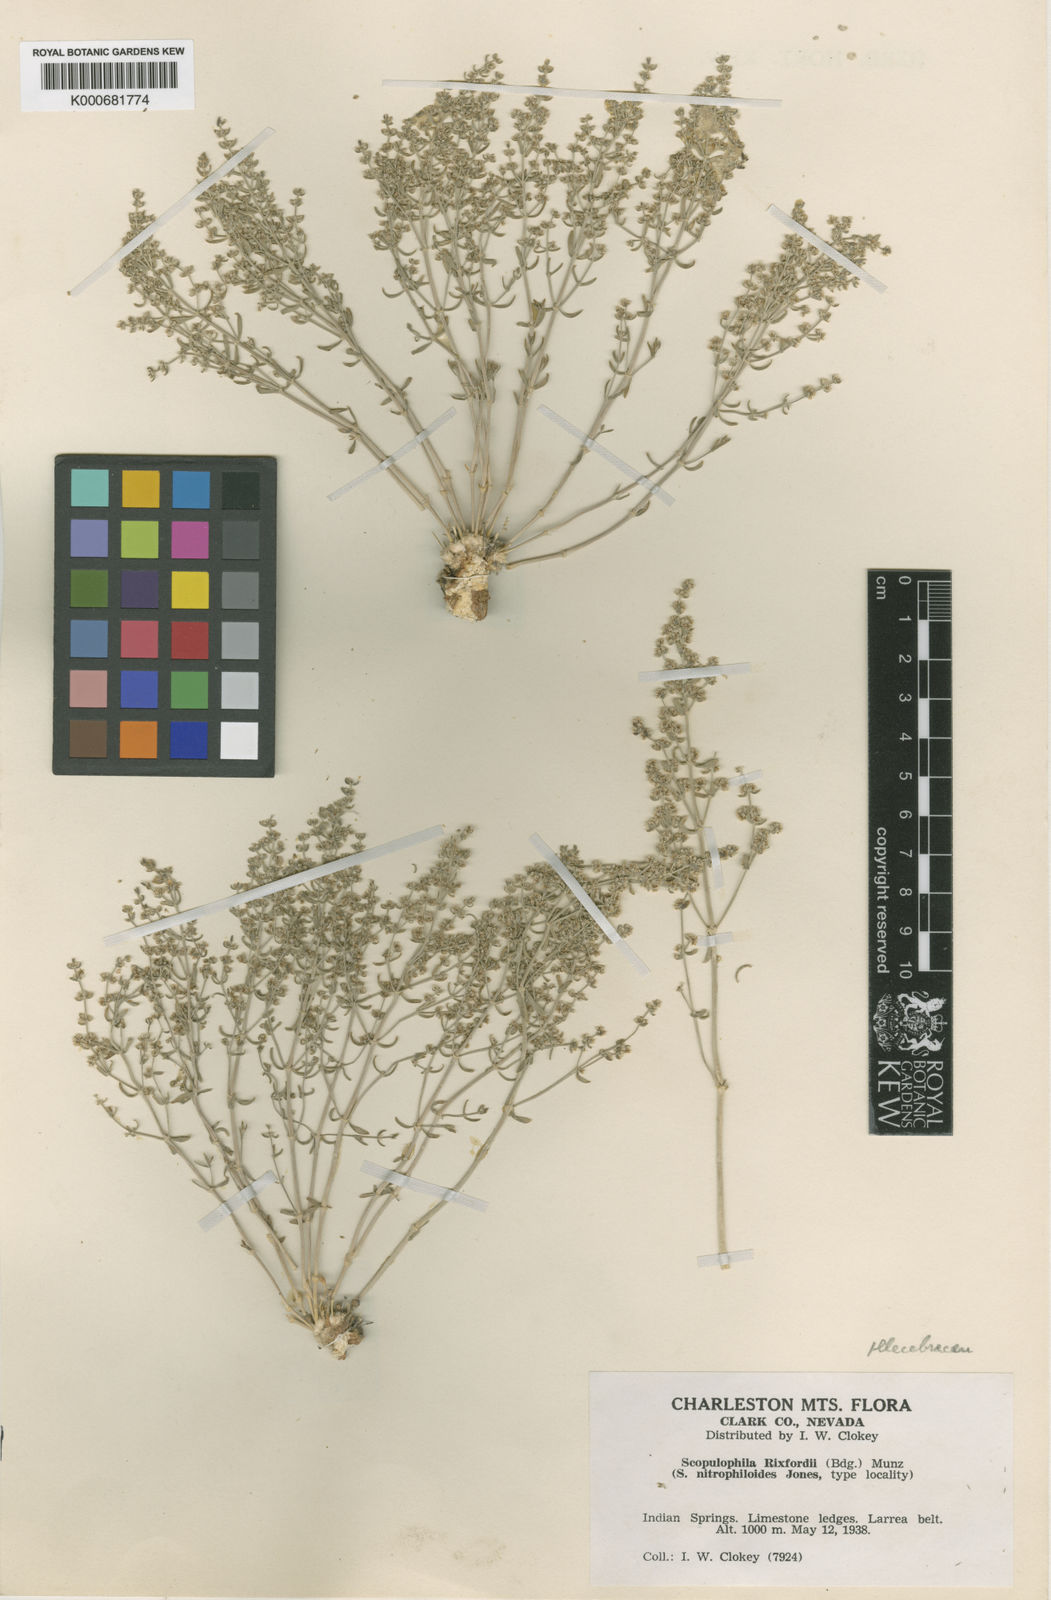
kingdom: Plantae
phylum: Tracheophyta
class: Magnoliopsida
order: Caryophyllales
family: Caryophyllaceae
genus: Scopulophila
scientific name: Scopulophila rixfordii
